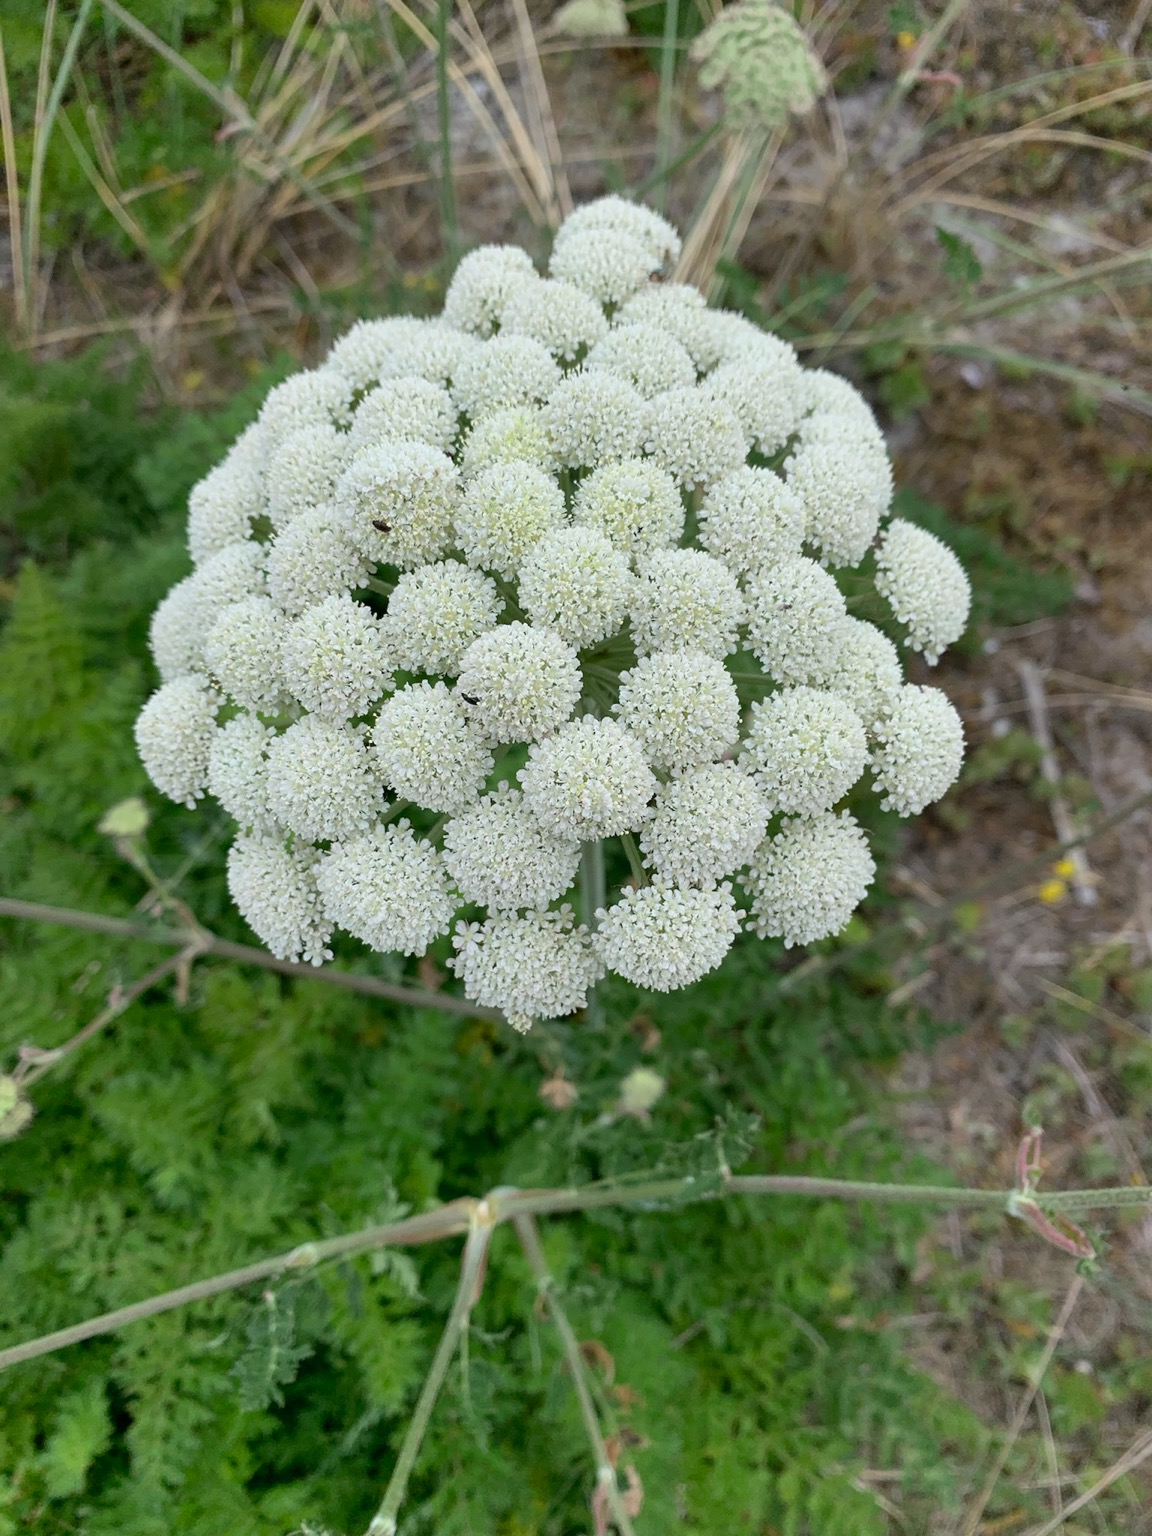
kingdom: Plantae
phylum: Tracheophyta
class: Magnoliopsida
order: Apiales
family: Apiaceae
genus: Seseli
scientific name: Seseli libanotis
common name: Hjorterod
